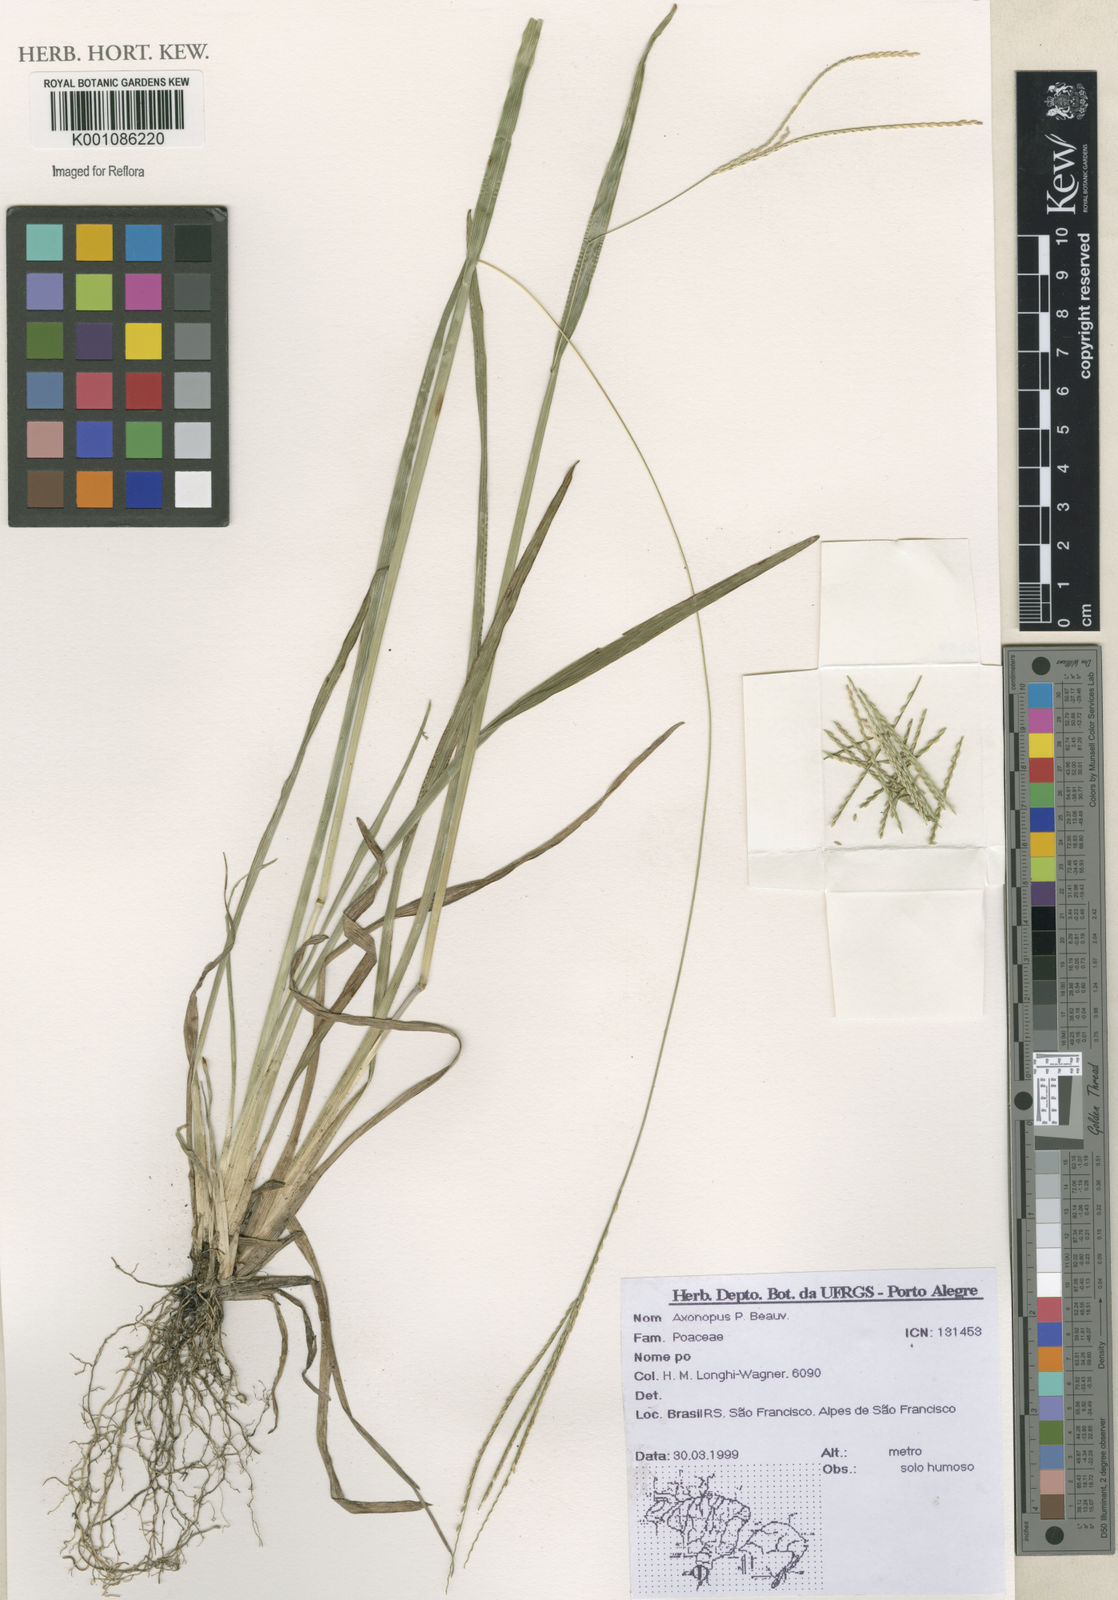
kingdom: Plantae
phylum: Tracheophyta
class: Liliopsida
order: Poales
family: Poaceae
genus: Axonopus
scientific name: Axonopus
